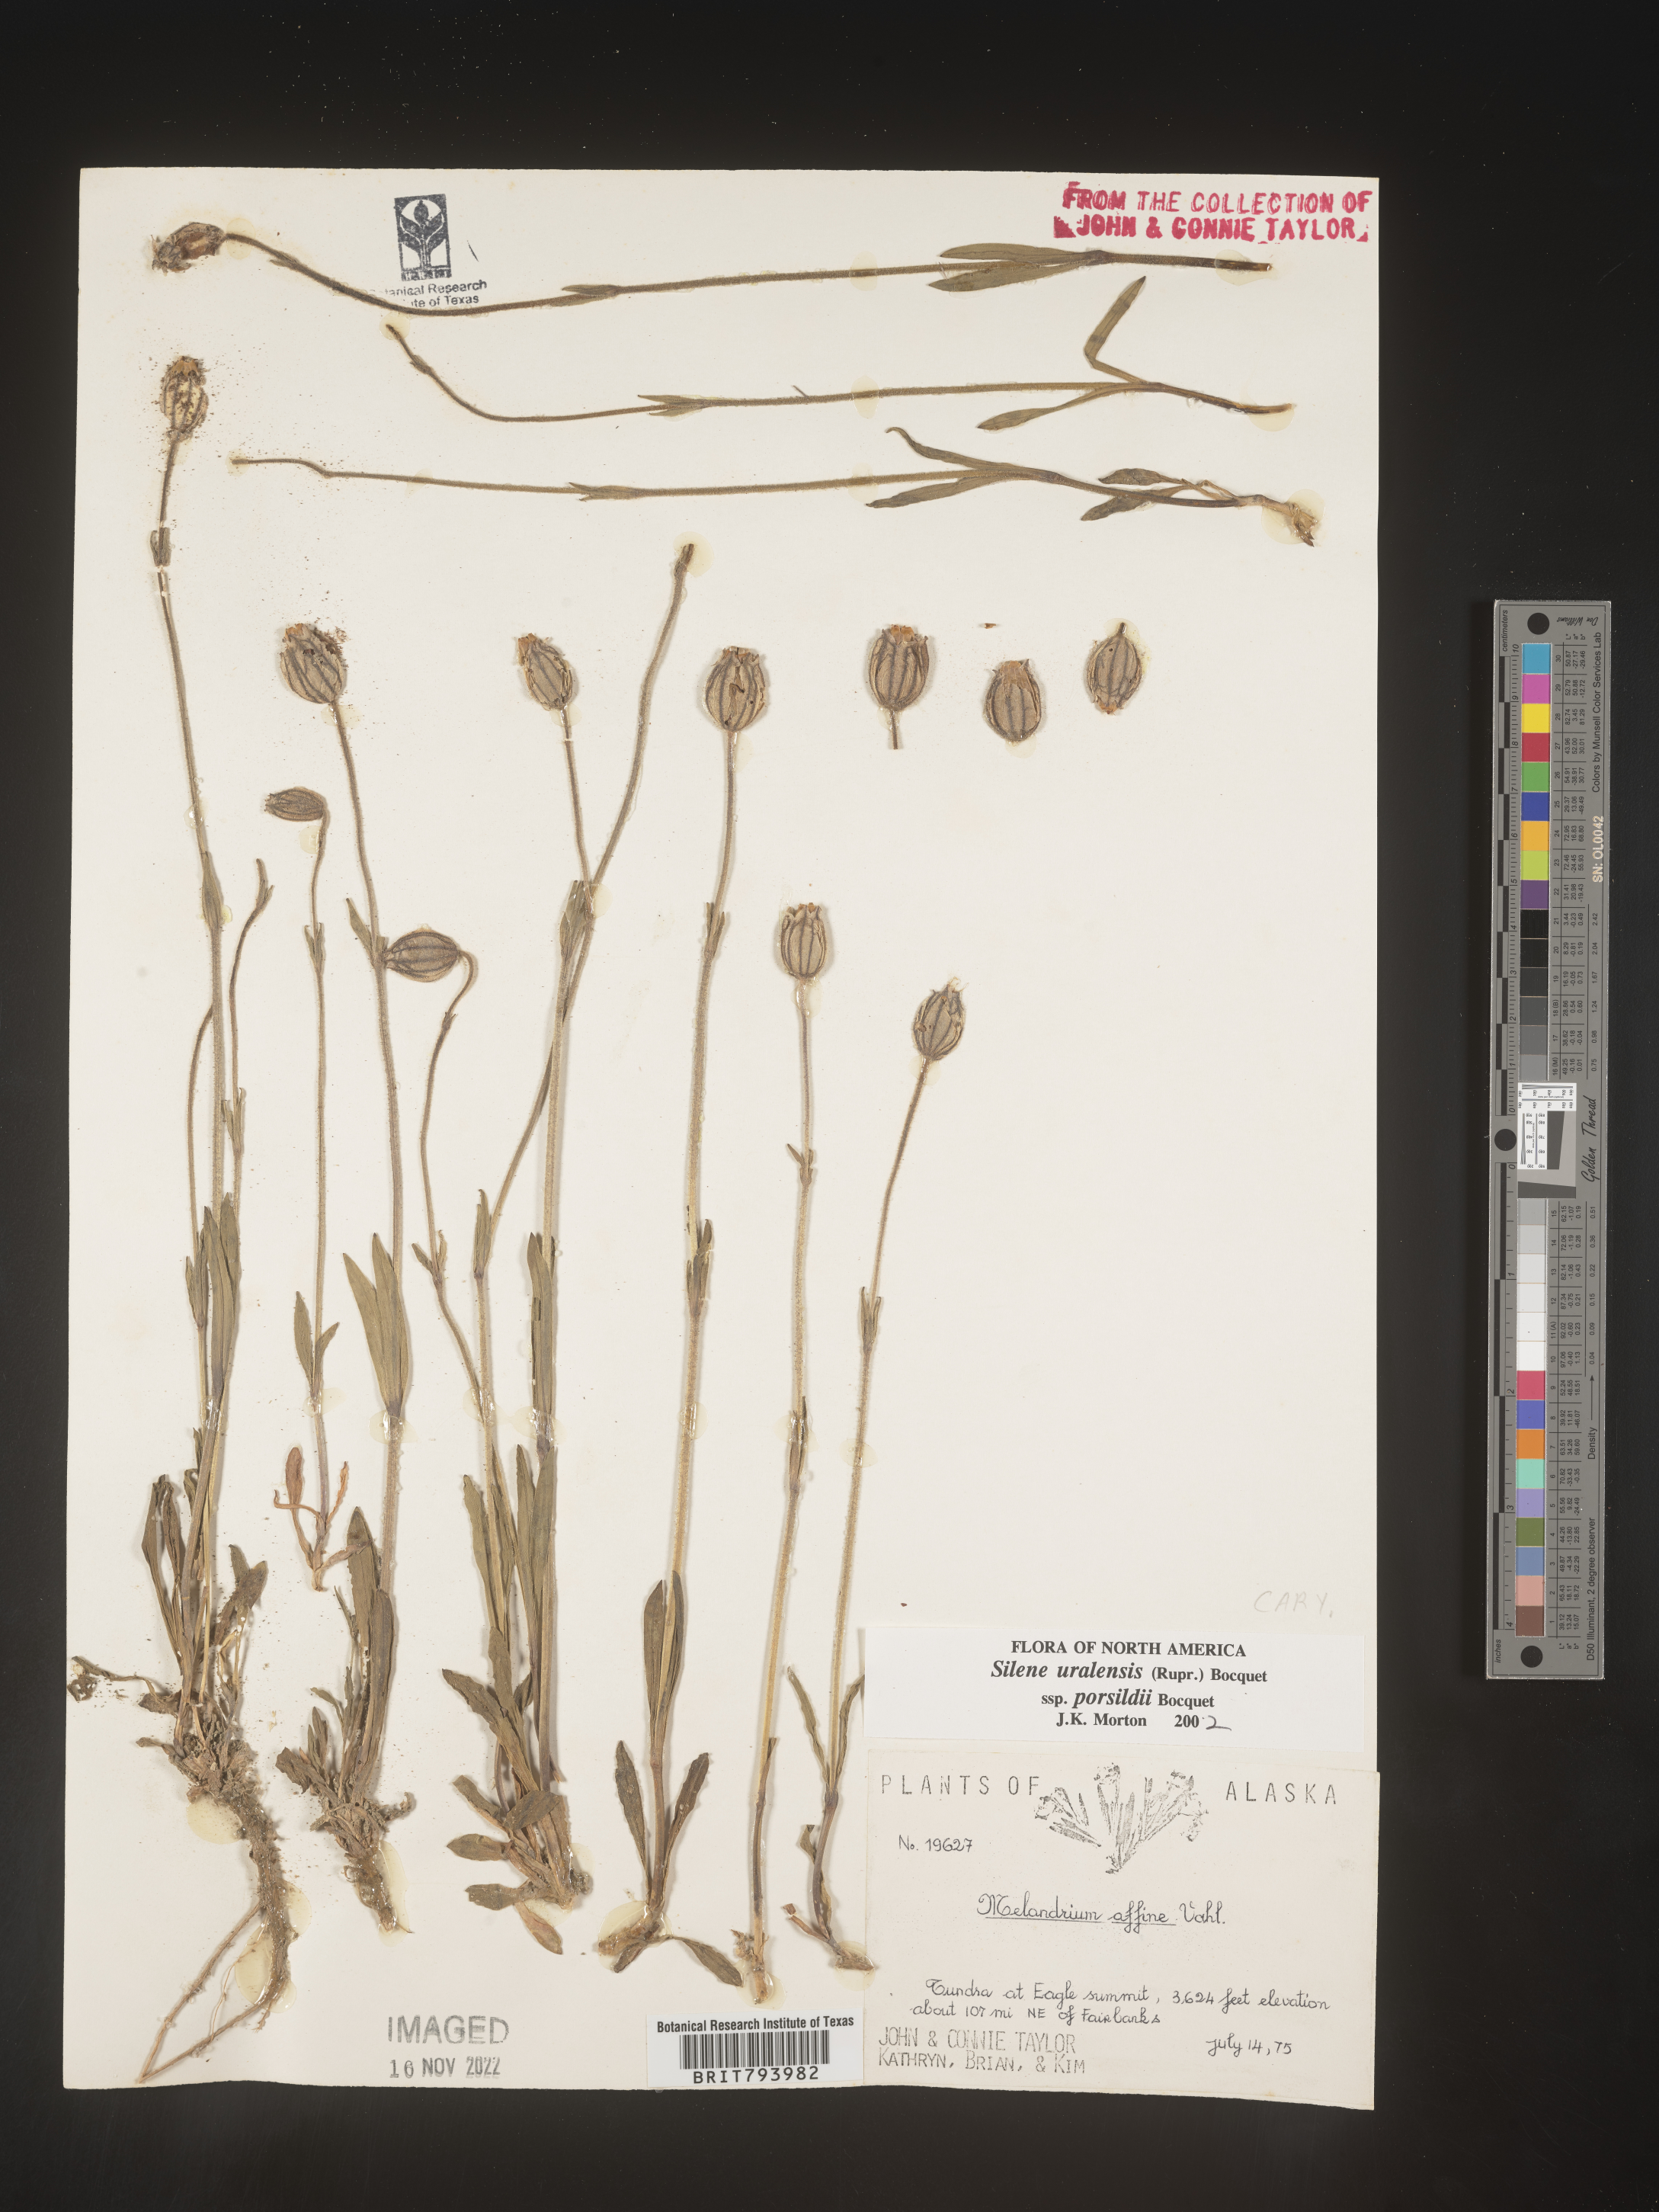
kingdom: Plantae
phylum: Tracheophyta
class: Magnoliopsida
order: Caryophyllales
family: Caryophyllaceae
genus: Silene
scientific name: Silene uralensis
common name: Nodding campion
